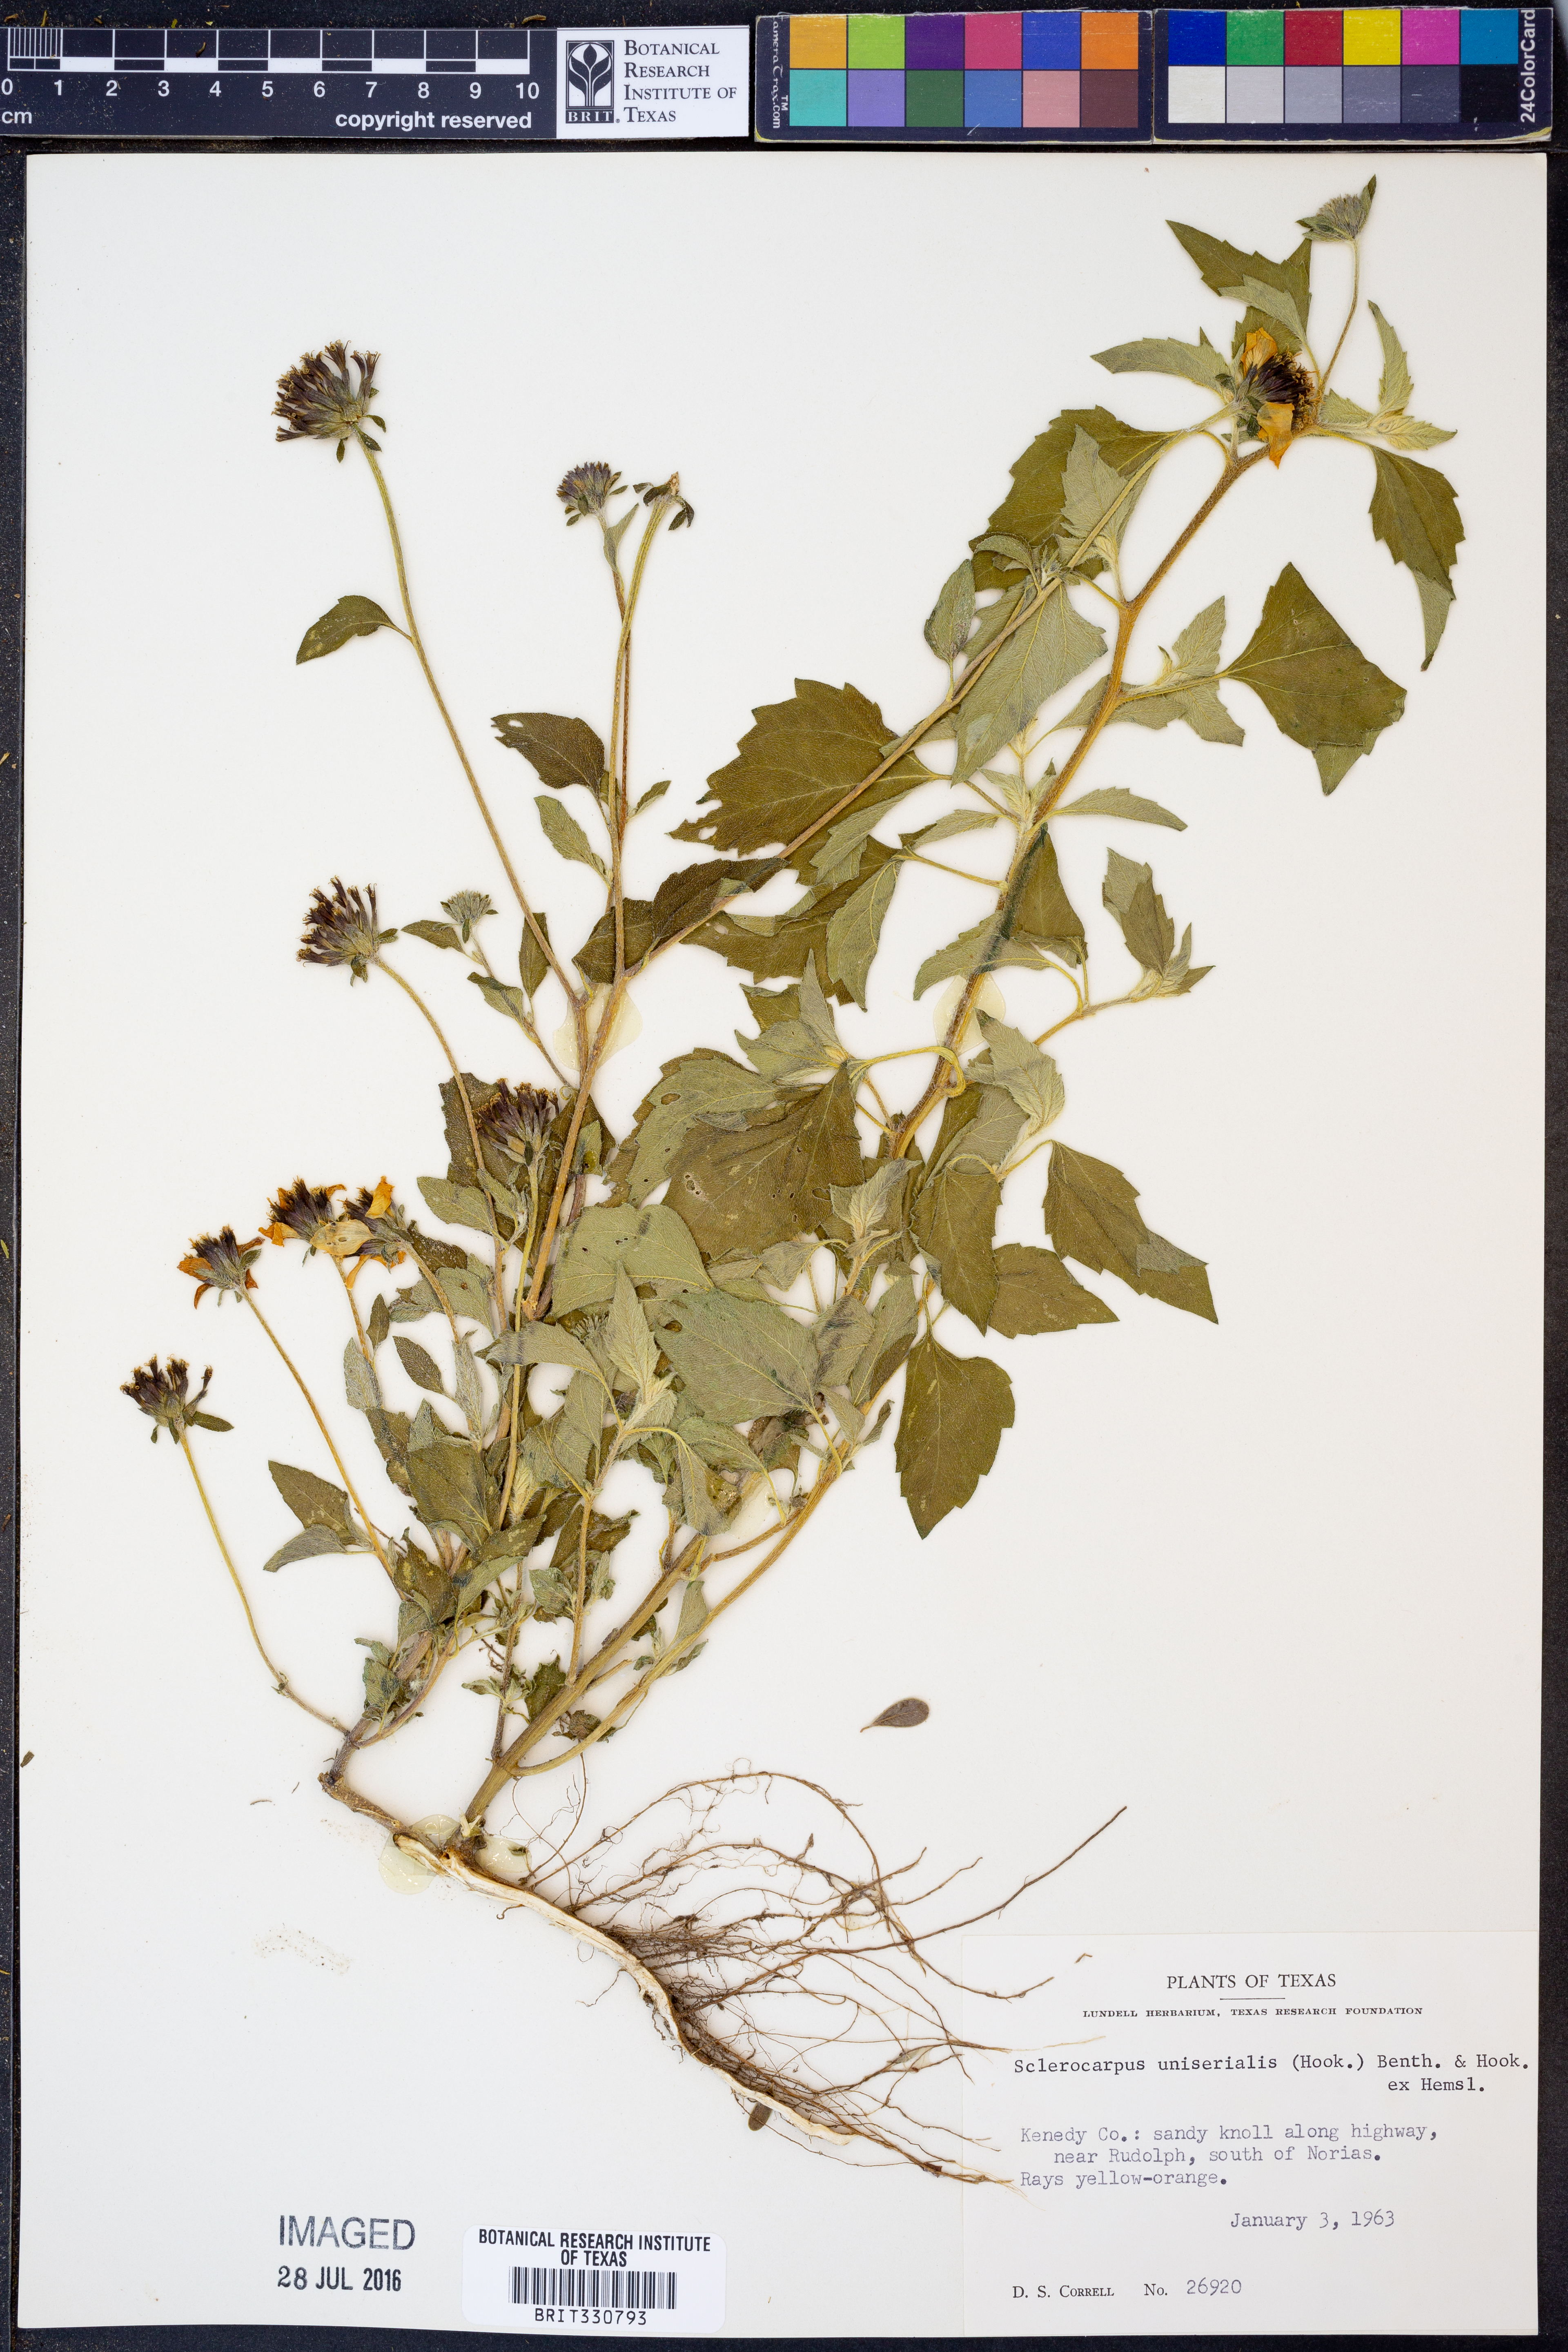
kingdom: Plantae
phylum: Tracheophyta
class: Magnoliopsida
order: Asterales
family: Asteraceae
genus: Sclerocarpus
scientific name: Sclerocarpus uniserialis
